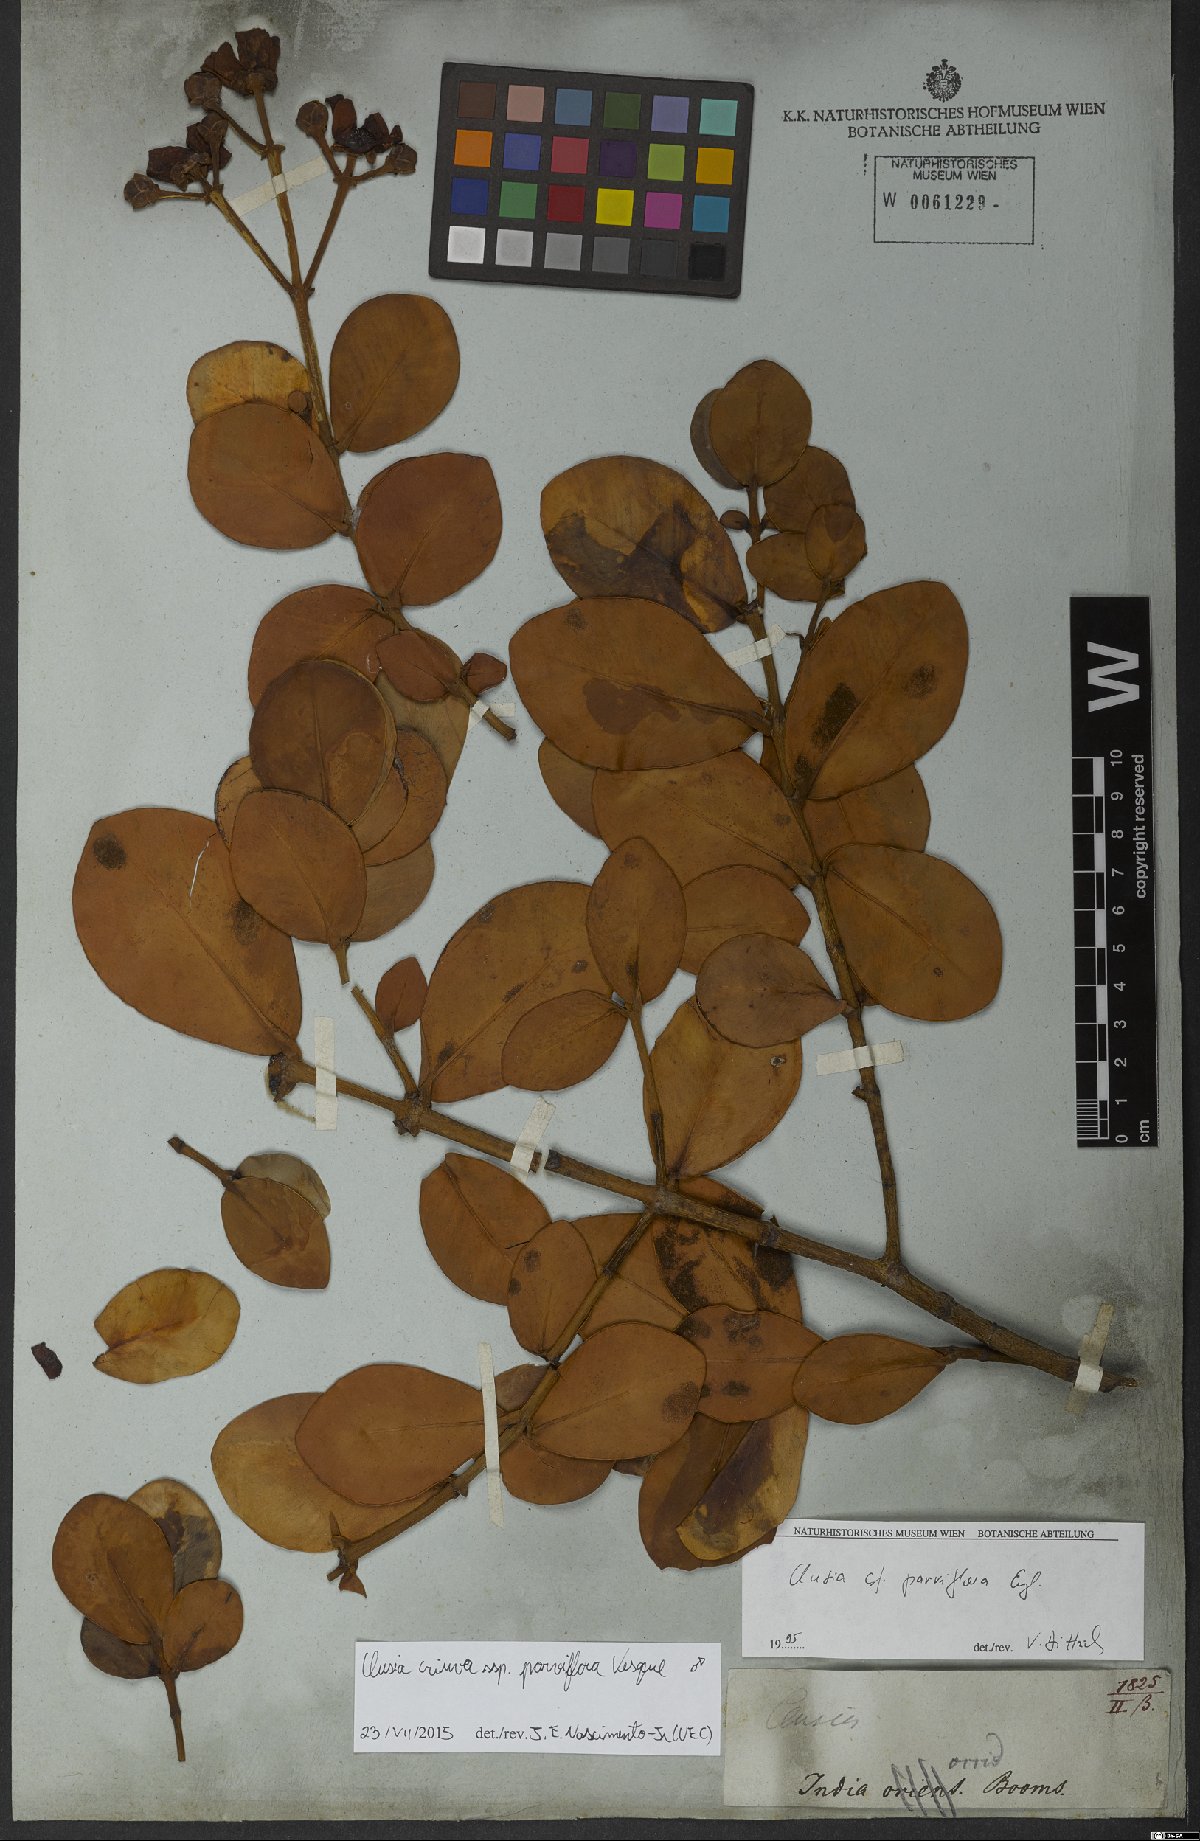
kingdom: Plantae
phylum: Tracheophyta
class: Magnoliopsida
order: Malpighiales
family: Clusiaceae
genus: Clusia
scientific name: Clusia criuva
